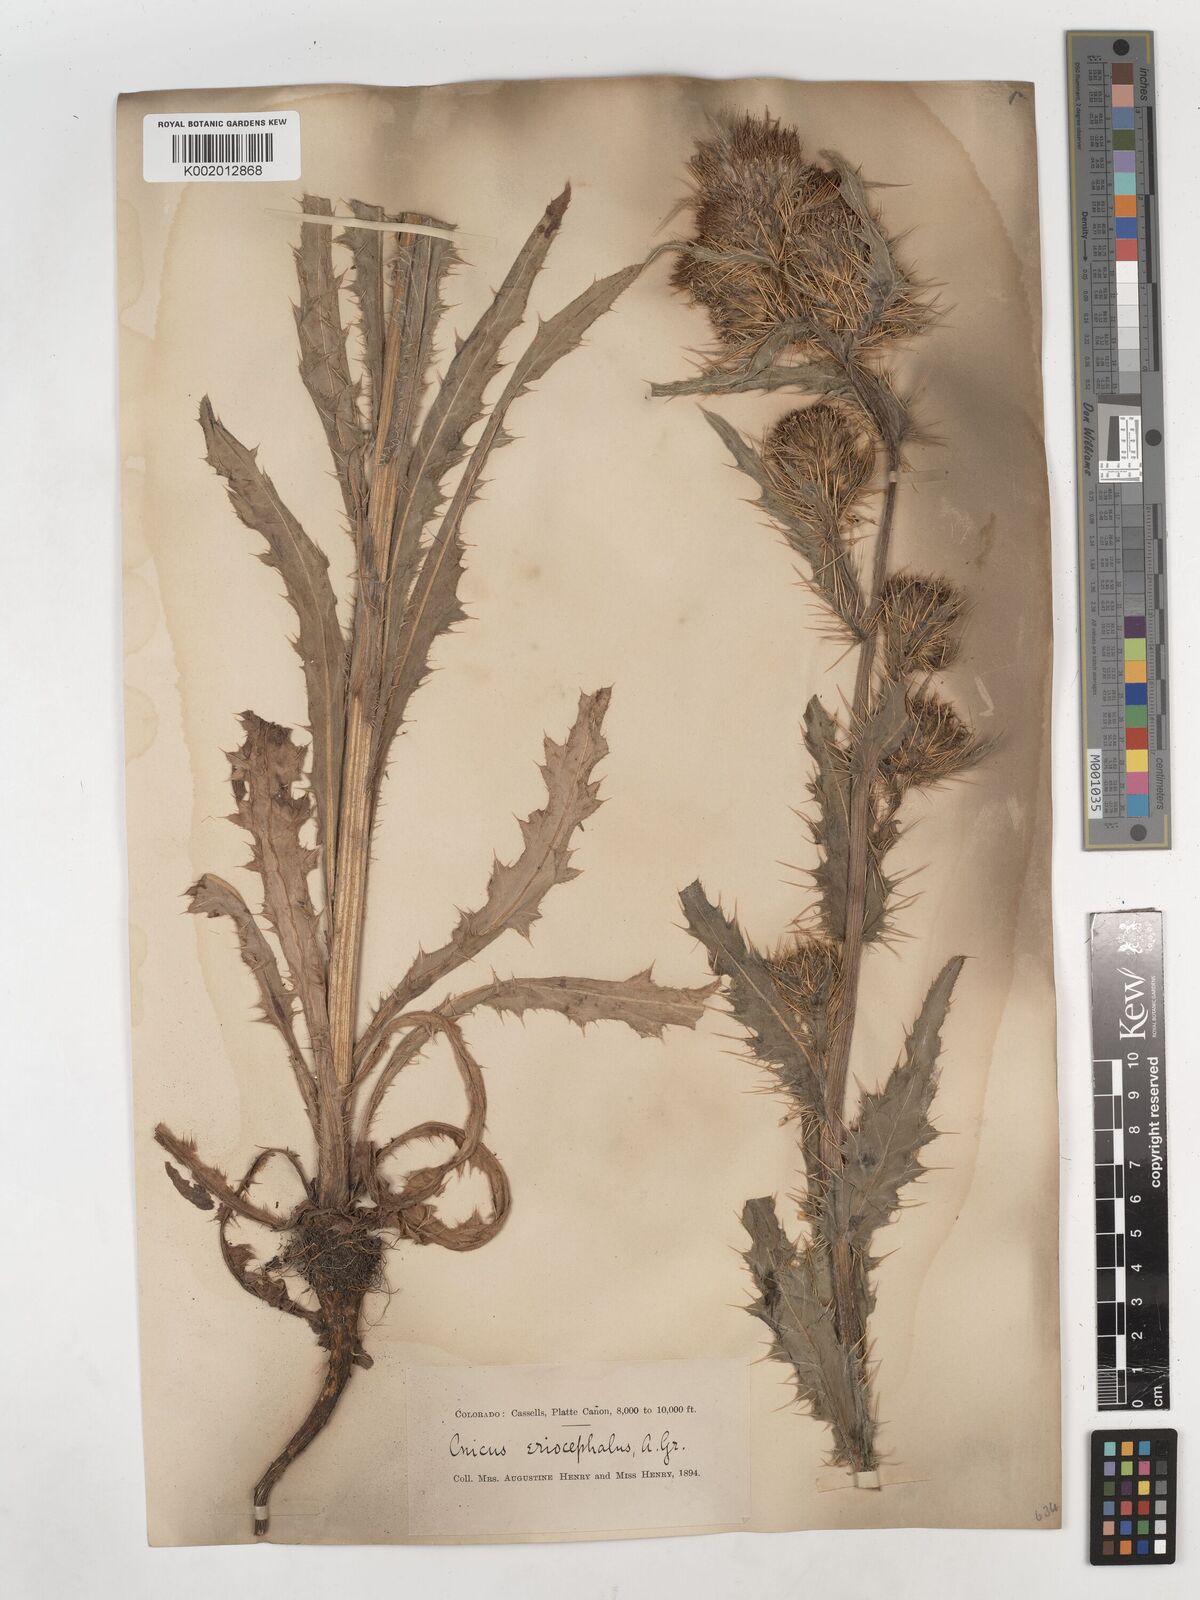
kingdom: Plantae
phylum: Tracheophyta
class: Magnoliopsida
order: Asterales
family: Asteraceae
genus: Cirsium
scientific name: Cirsium scopulorum
